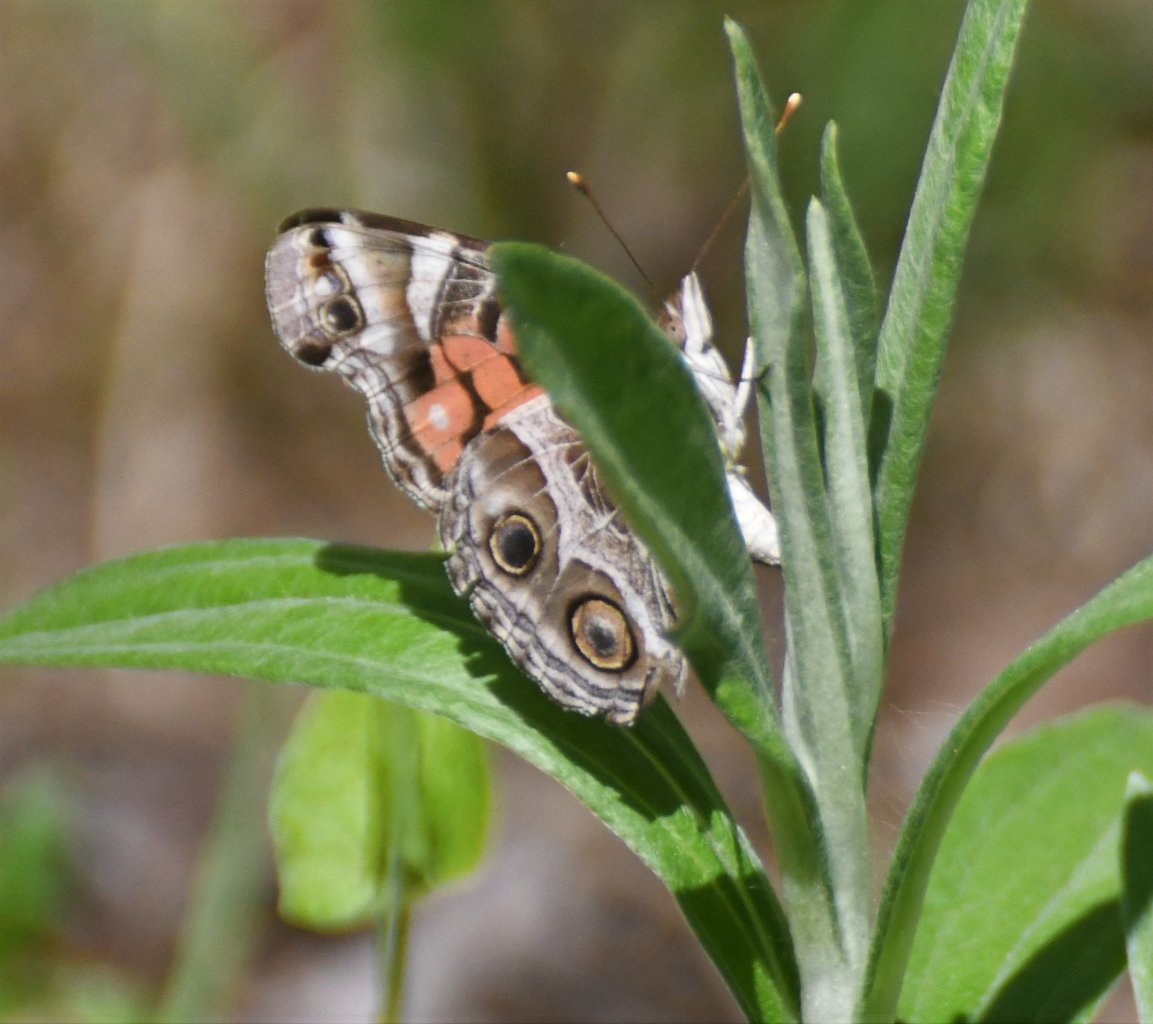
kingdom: Animalia
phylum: Arthropoda
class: Insecta
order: Lepidoptera
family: Nymphalidae
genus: Vanessa
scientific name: Vanessa virginiensis
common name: American Lady
